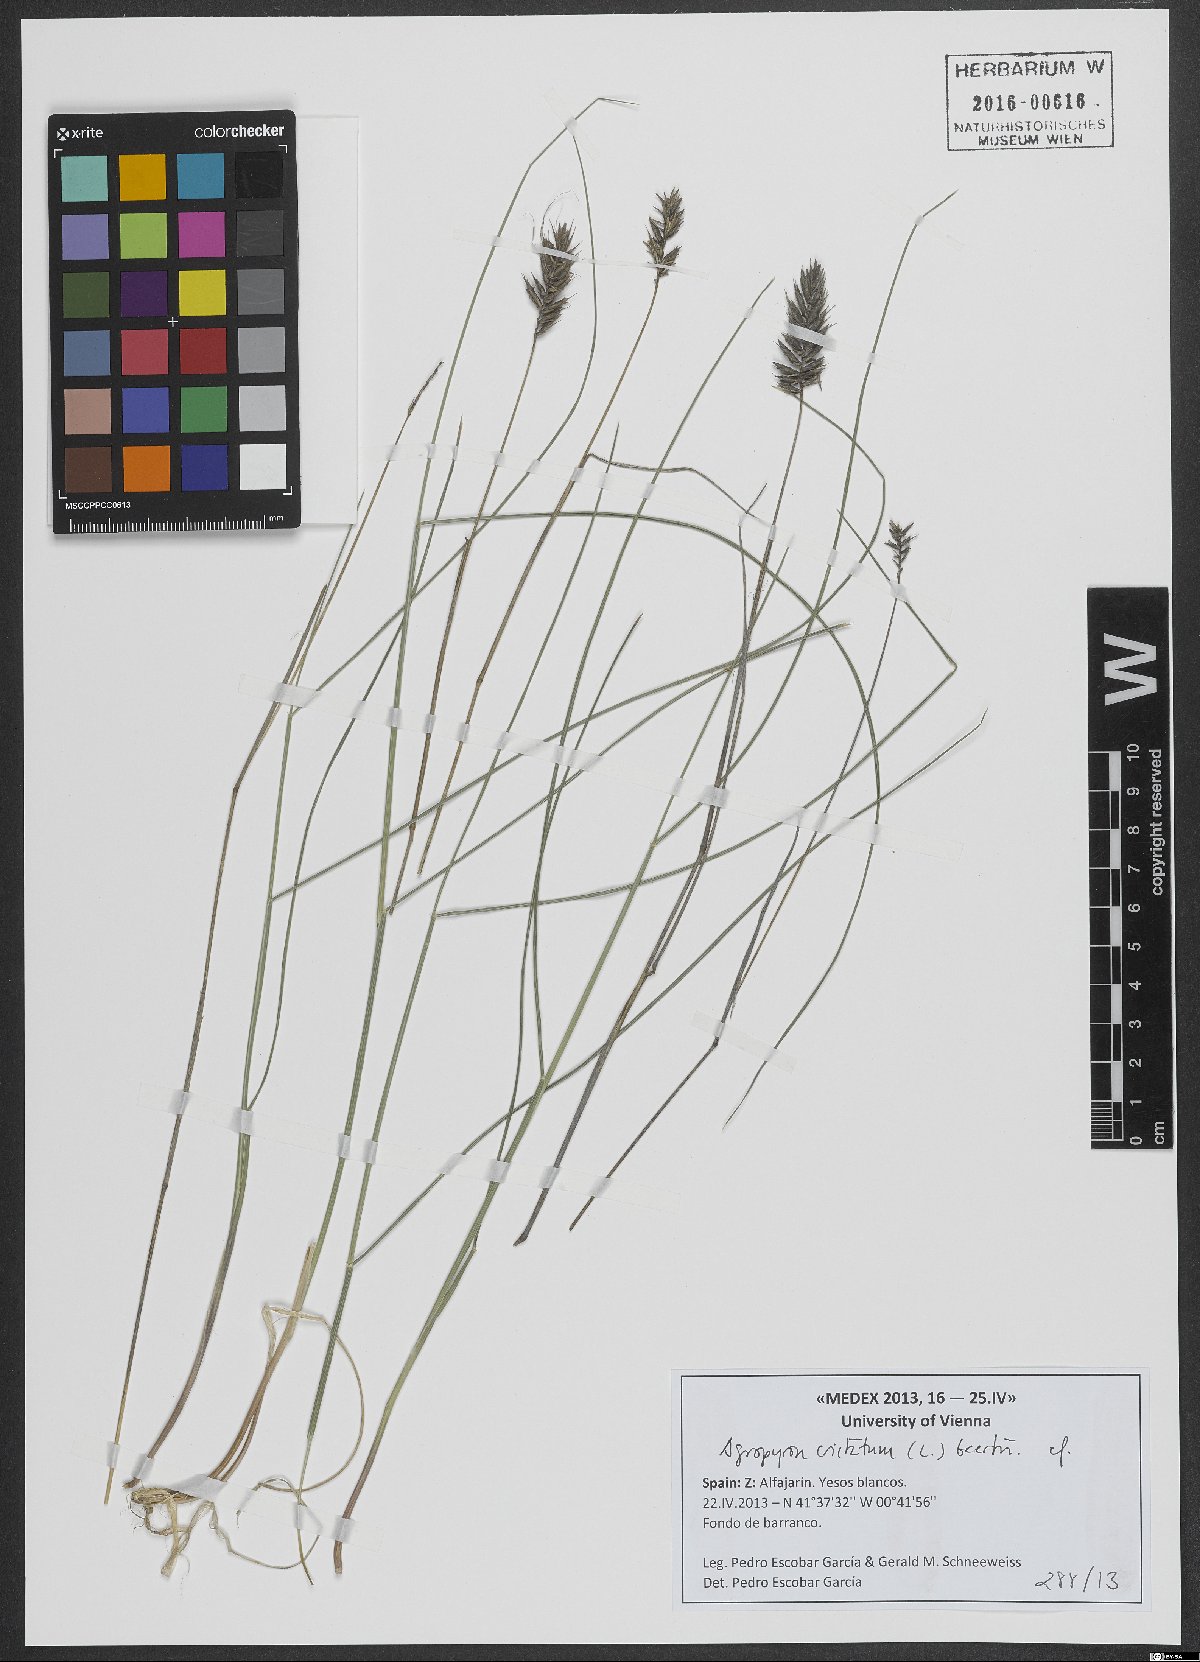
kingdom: Plantae
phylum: Tracheophyta
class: Liliopsida
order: Poales
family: Poaceae
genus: Agropyron
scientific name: Agropyron cristatum
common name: Crested wheatgrass
